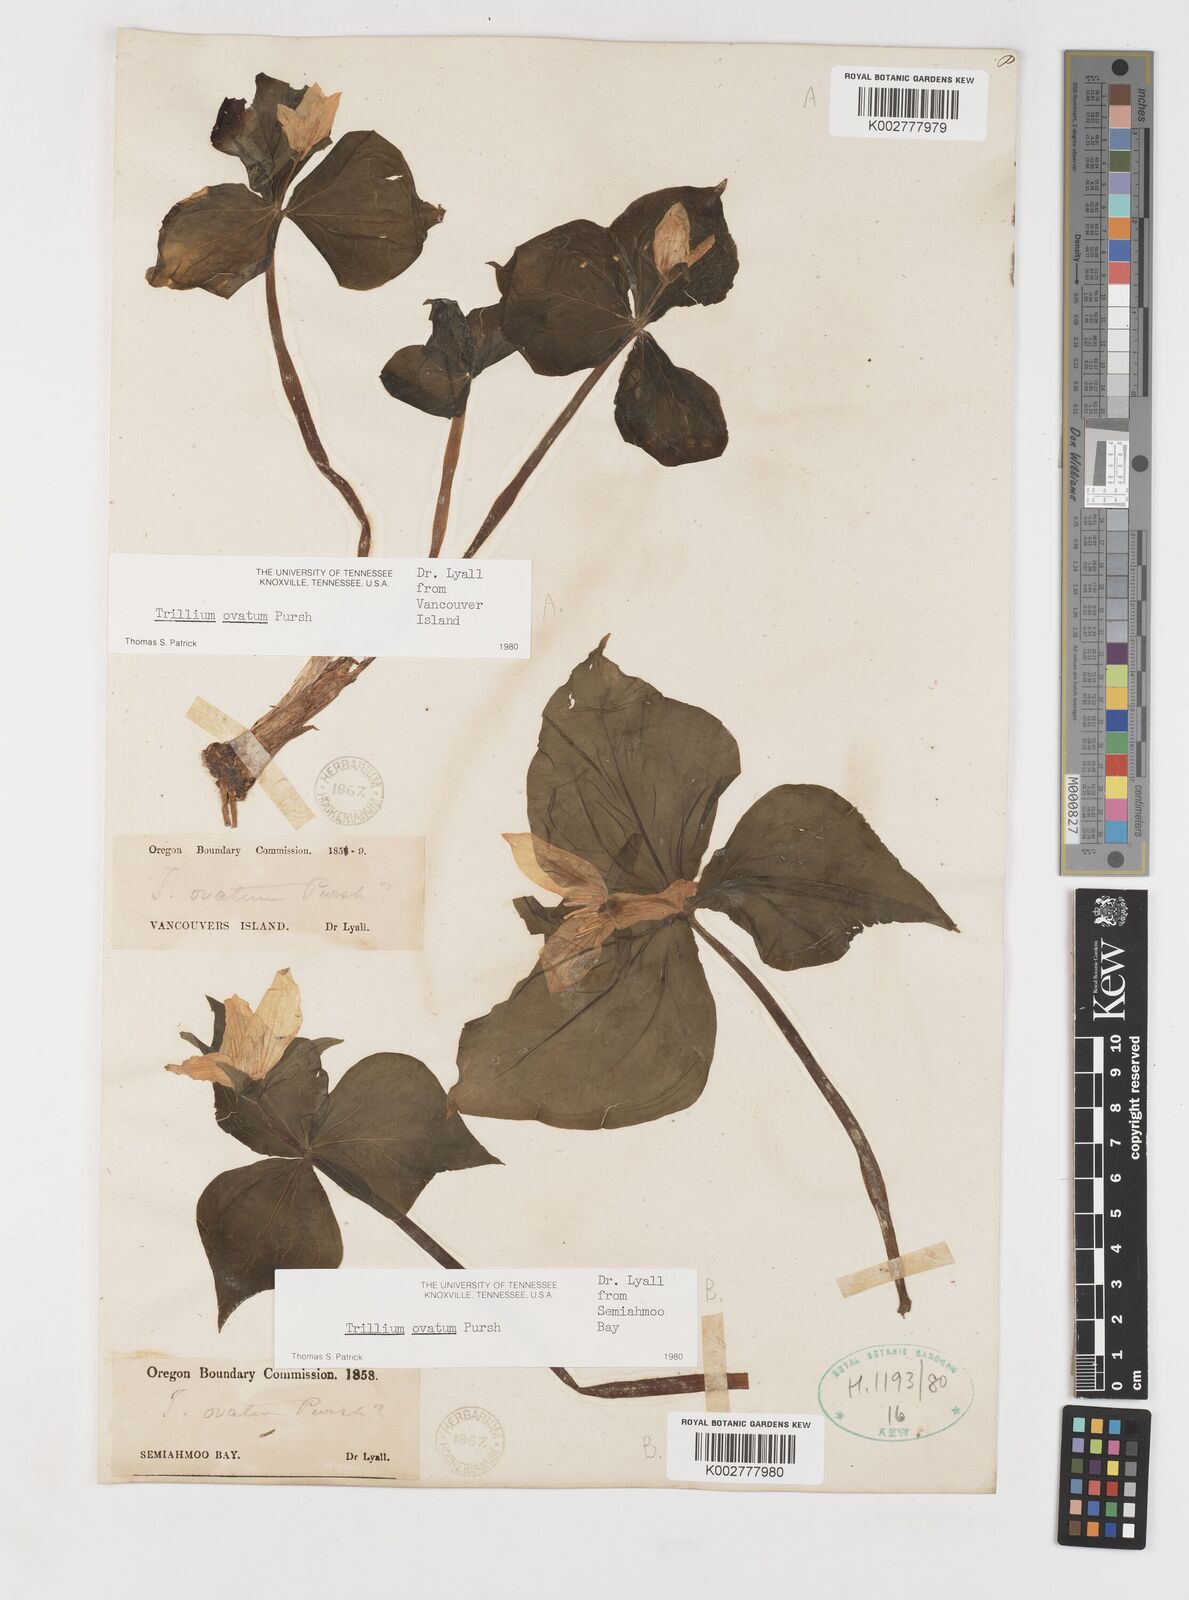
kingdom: Plantae
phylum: Tracheophyta
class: Liliopsida
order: Liliales
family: Melanthiaceae
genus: Trillium
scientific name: Trillium ovatum
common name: Pacific trillium
